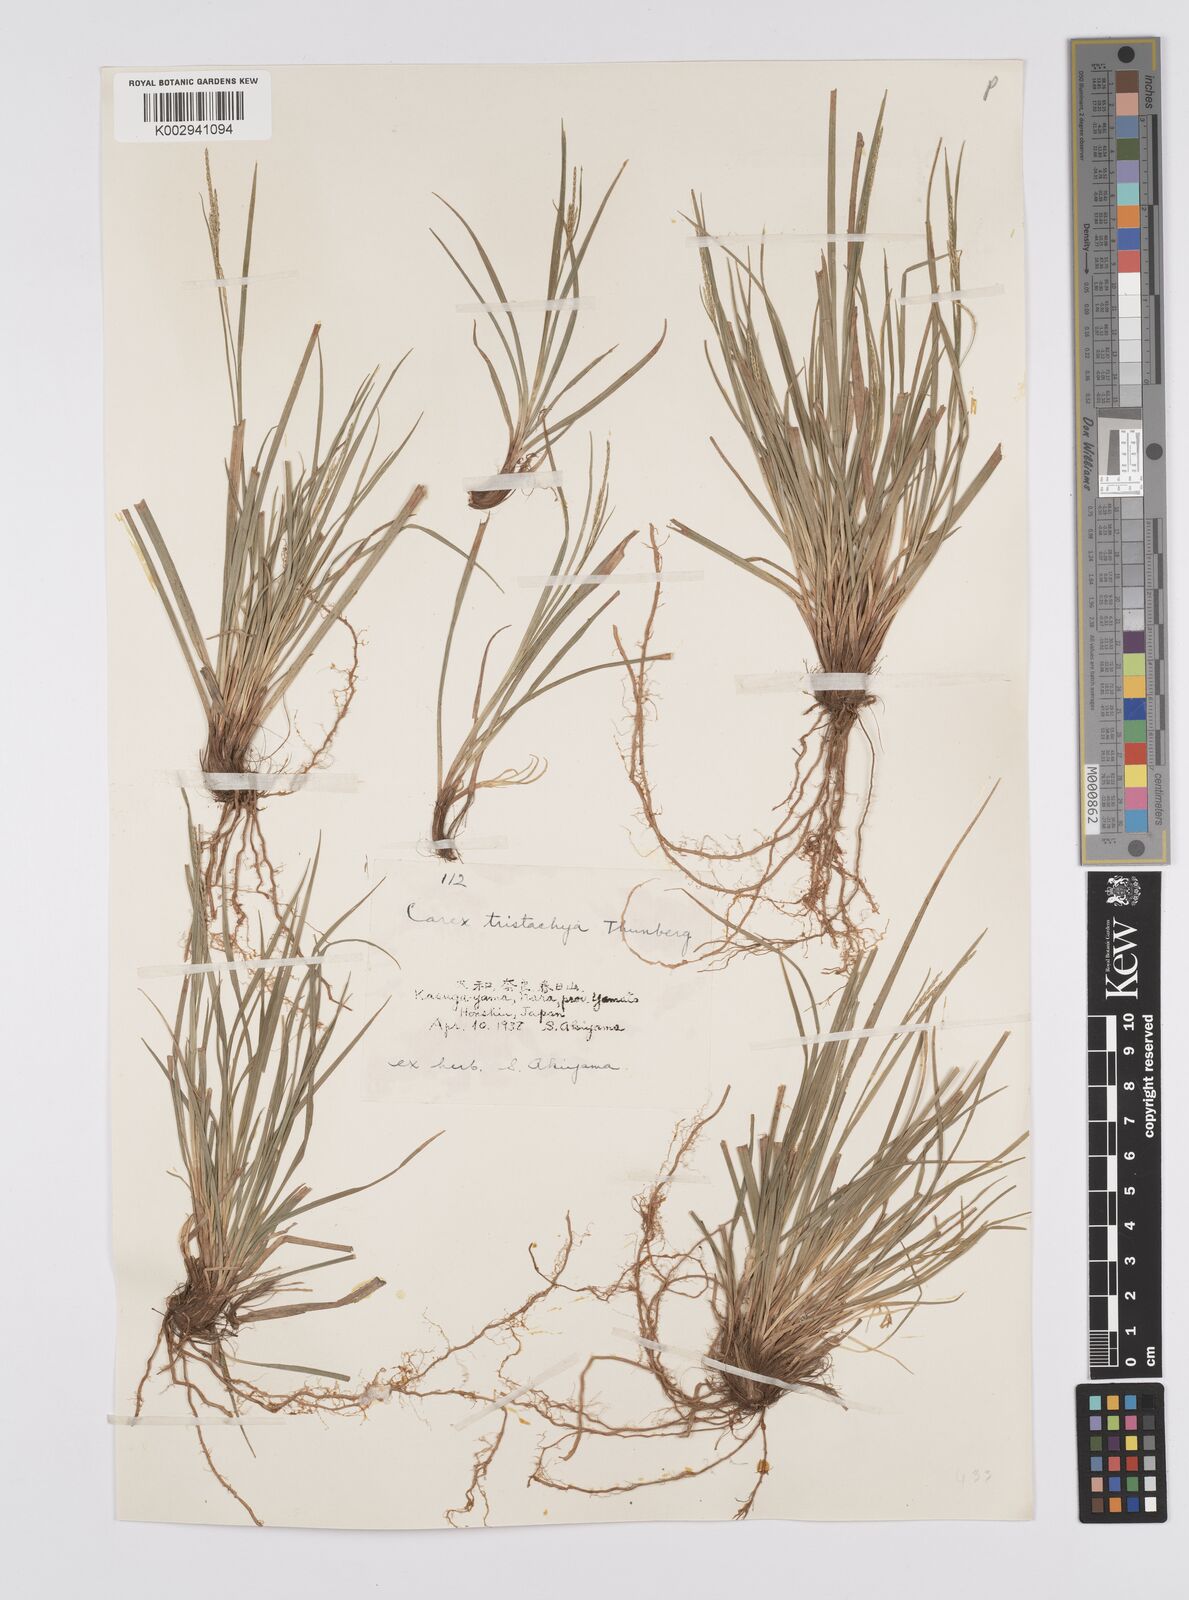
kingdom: Plantae
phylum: Tracheophyta
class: Liliopsida
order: Poales
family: Cyperaceae
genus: Carex
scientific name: Carex tristachya
